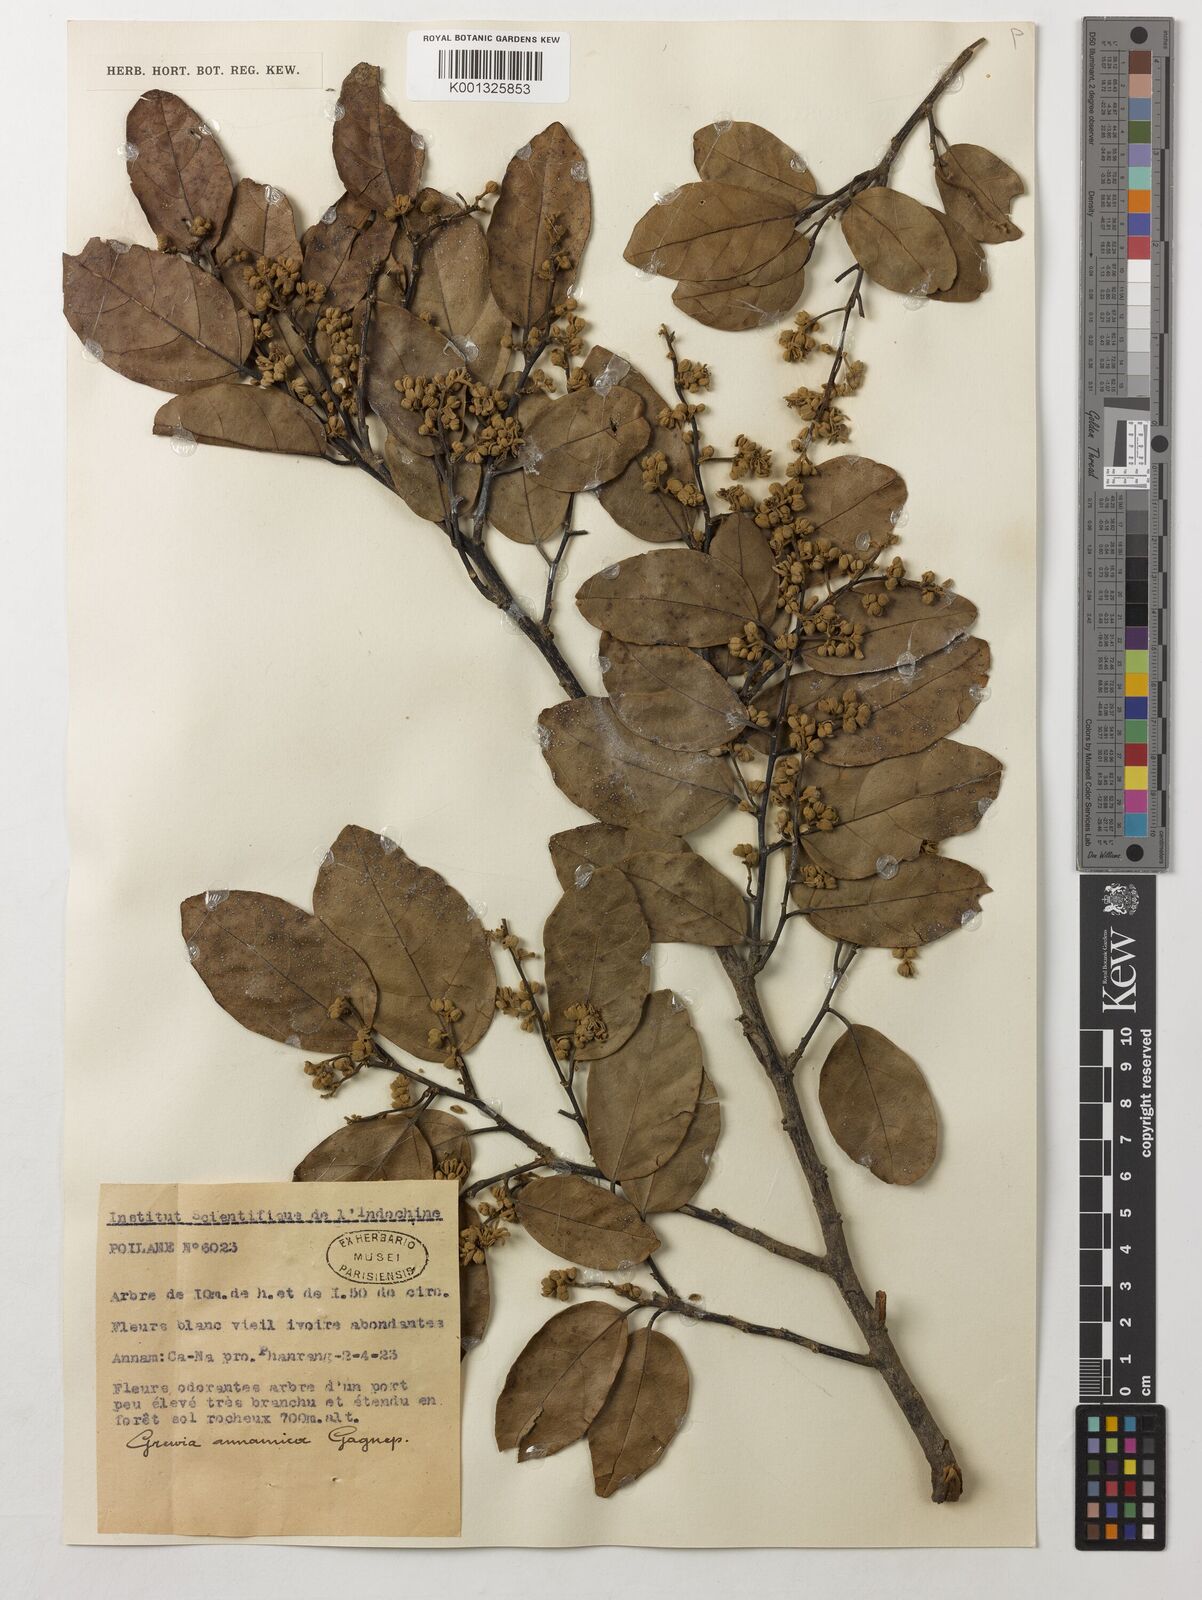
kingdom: Plantae
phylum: Tracheophyta
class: Magnoliopsida
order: Malvales
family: Malvaceae
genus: Grewia
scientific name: Grewia annamica
